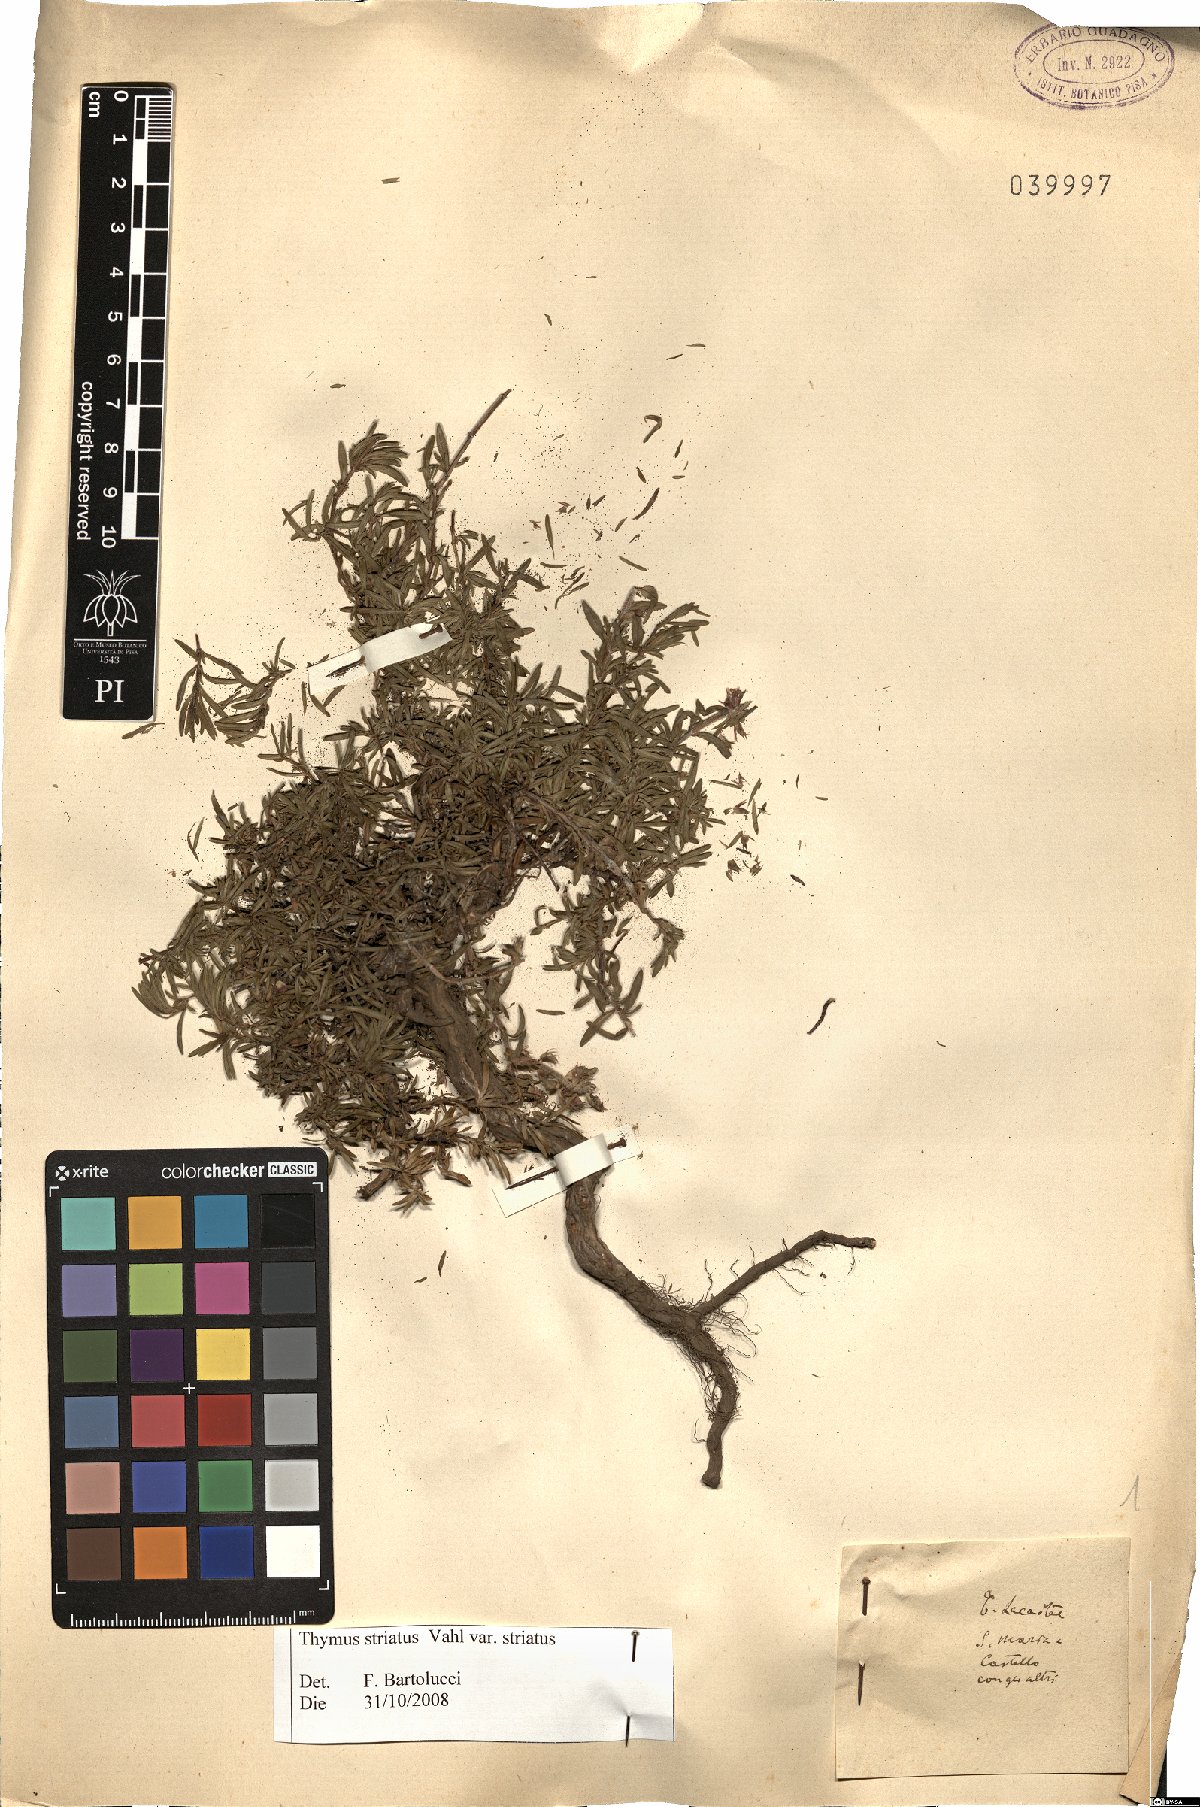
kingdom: Plantae
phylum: Tracheophyta
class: Magnoliopsida
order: Lamiales
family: Lamiaceae
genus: Thymus
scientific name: Thymus striatus
